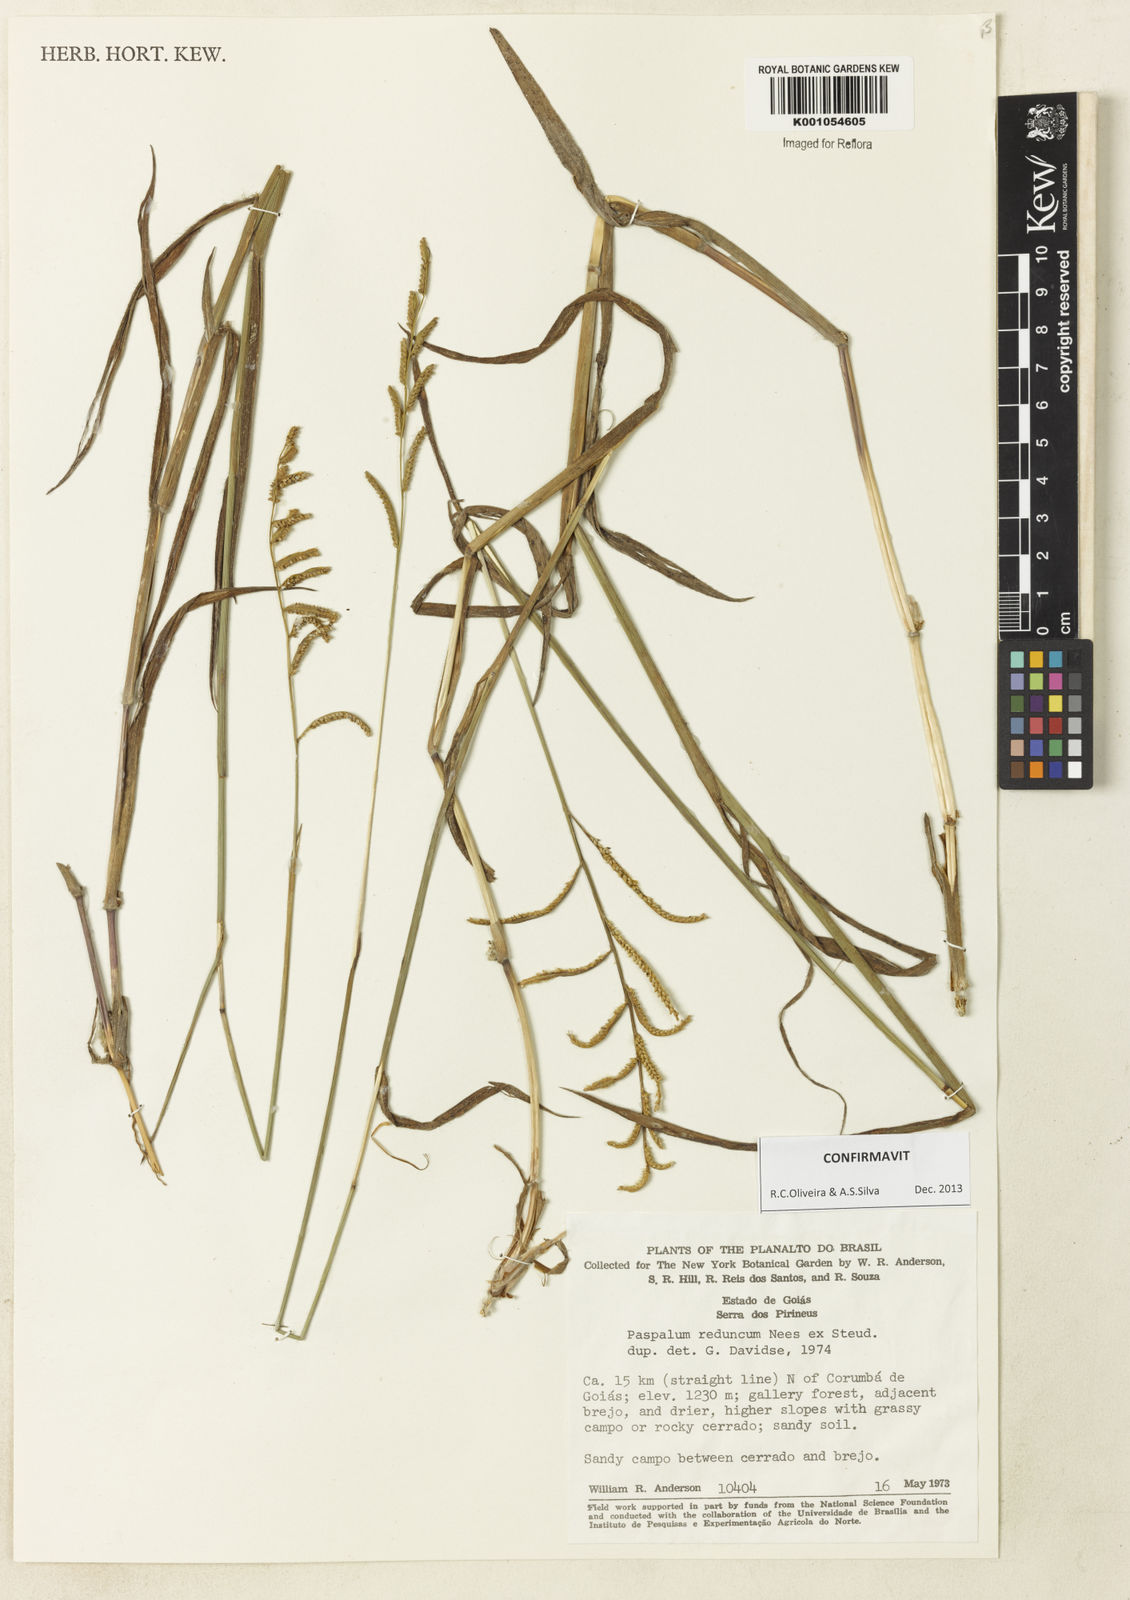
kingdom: Plantae
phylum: Tracheophyta
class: Liliopsida
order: Poales
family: Poaceae
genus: Paspalum
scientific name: Paspalum reduncum
